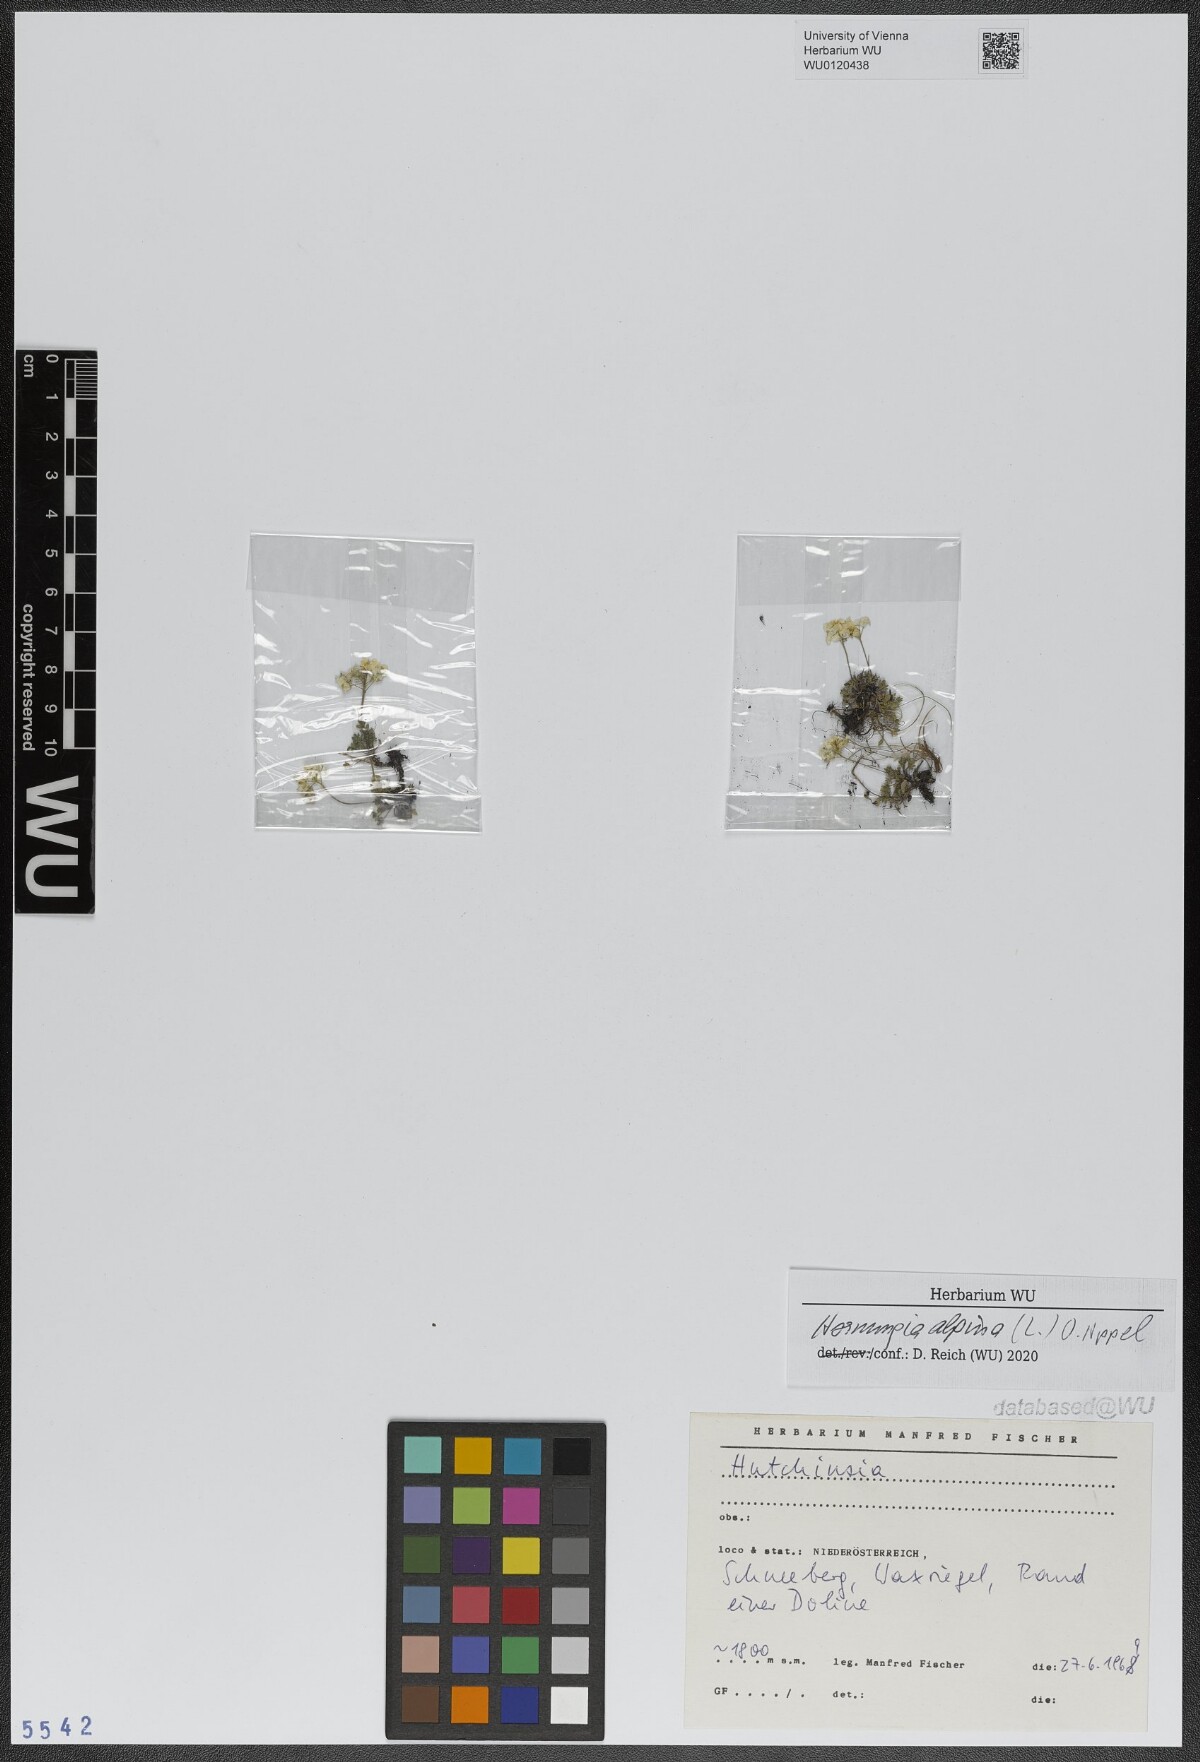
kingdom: Plantae
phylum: Tracheophyta
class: Magnoliopsida
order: Brassicales
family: Brassicaceae
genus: Hornungia
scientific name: Hornungia alpina
